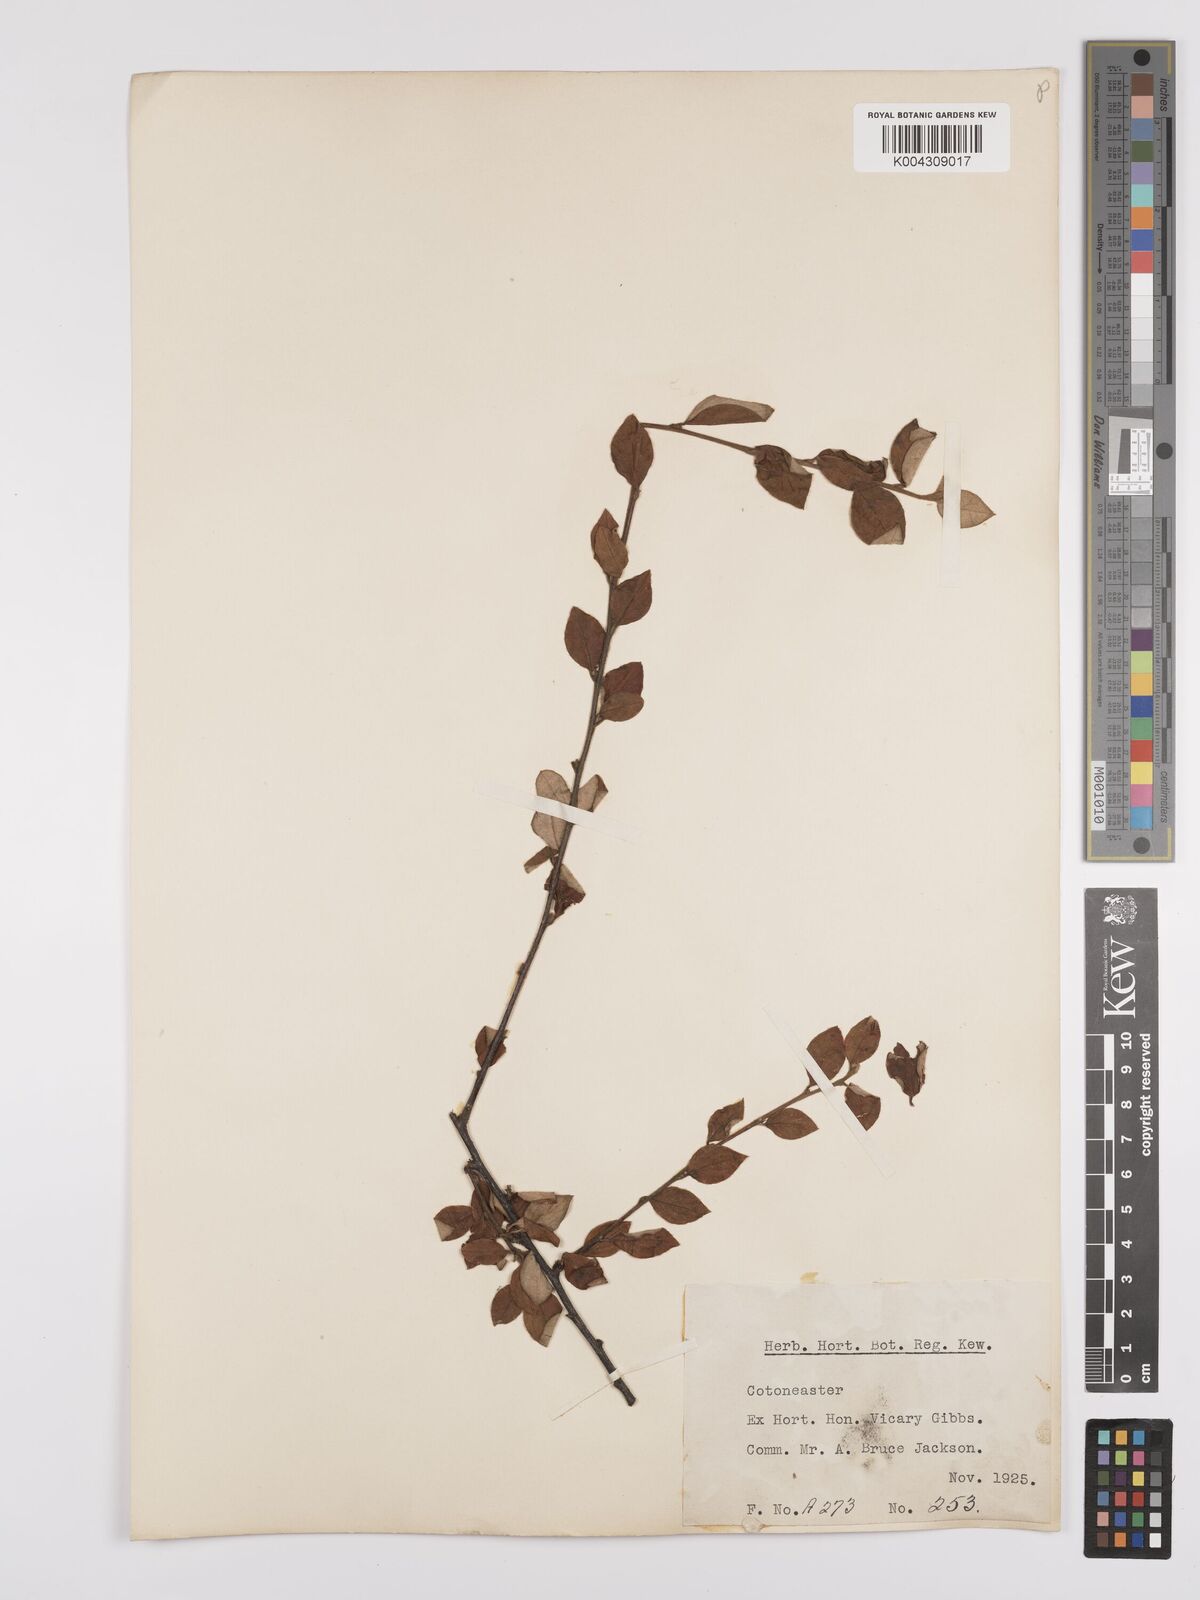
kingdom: Plantae
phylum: Tracheophyta
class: Magnoliopsida
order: Rosales
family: Rosaceae
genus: Cotoneaster
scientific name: Cotoneaster
